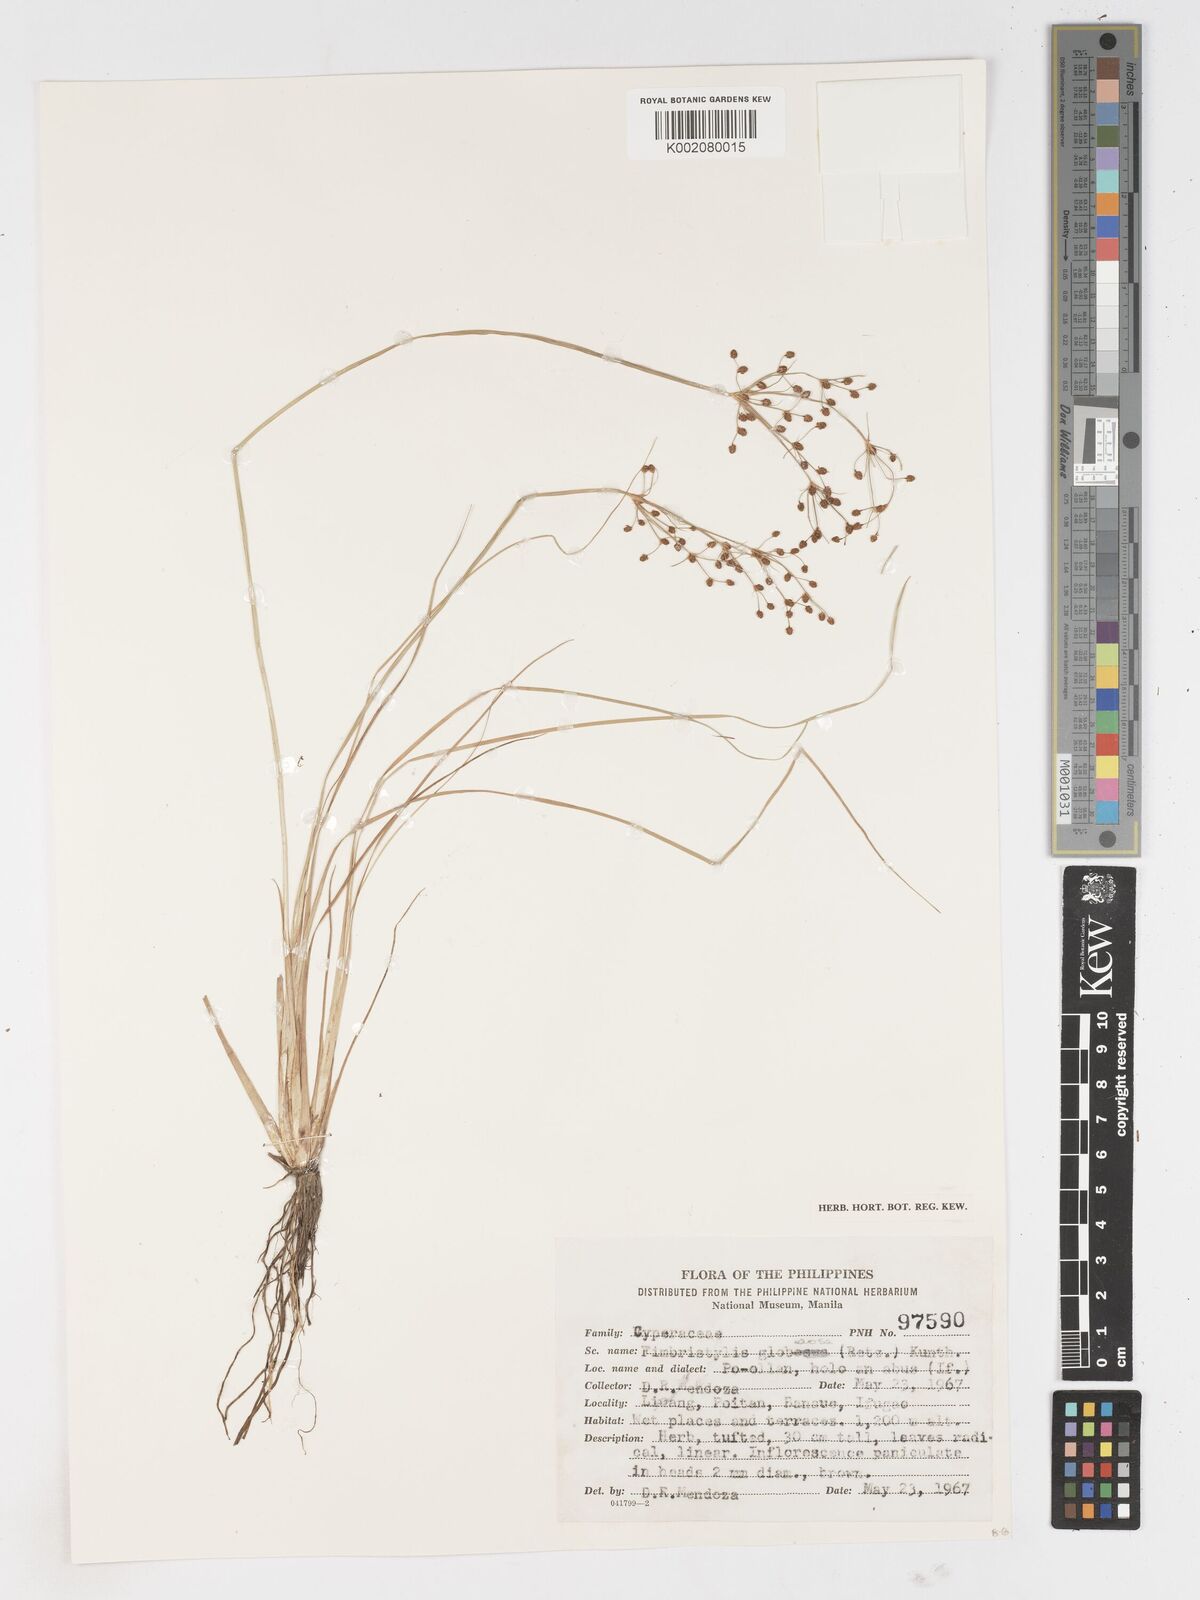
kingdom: Plantae
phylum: Tracheophyta
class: Liliopsida
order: Poales
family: Cyperaceae
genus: Fimbristylis
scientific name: Fimbristylis umbellaris
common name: Globular fimbristylis
